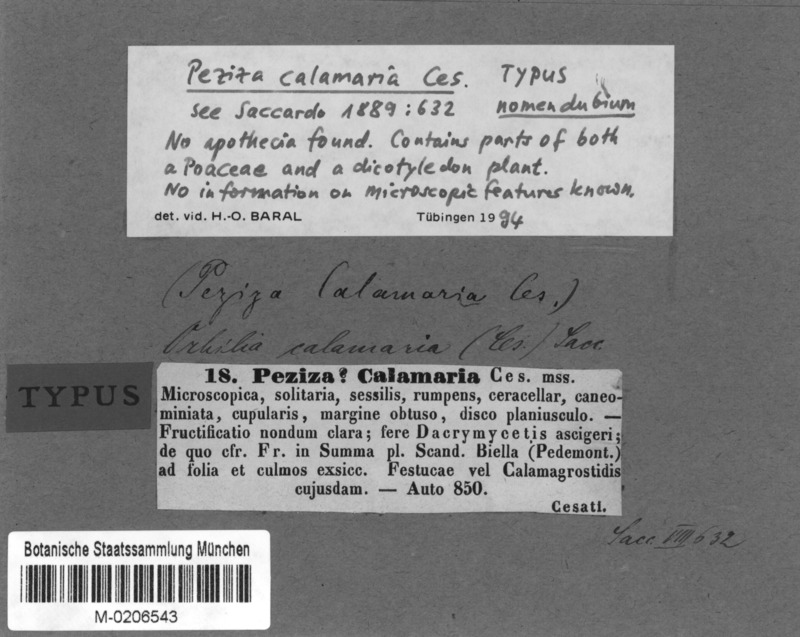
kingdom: Fungi
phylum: Ascomycota
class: Orbiliomycetes
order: Orbiliales
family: Orbiliaceae
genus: Orbilia
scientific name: Orbilia calamaria
